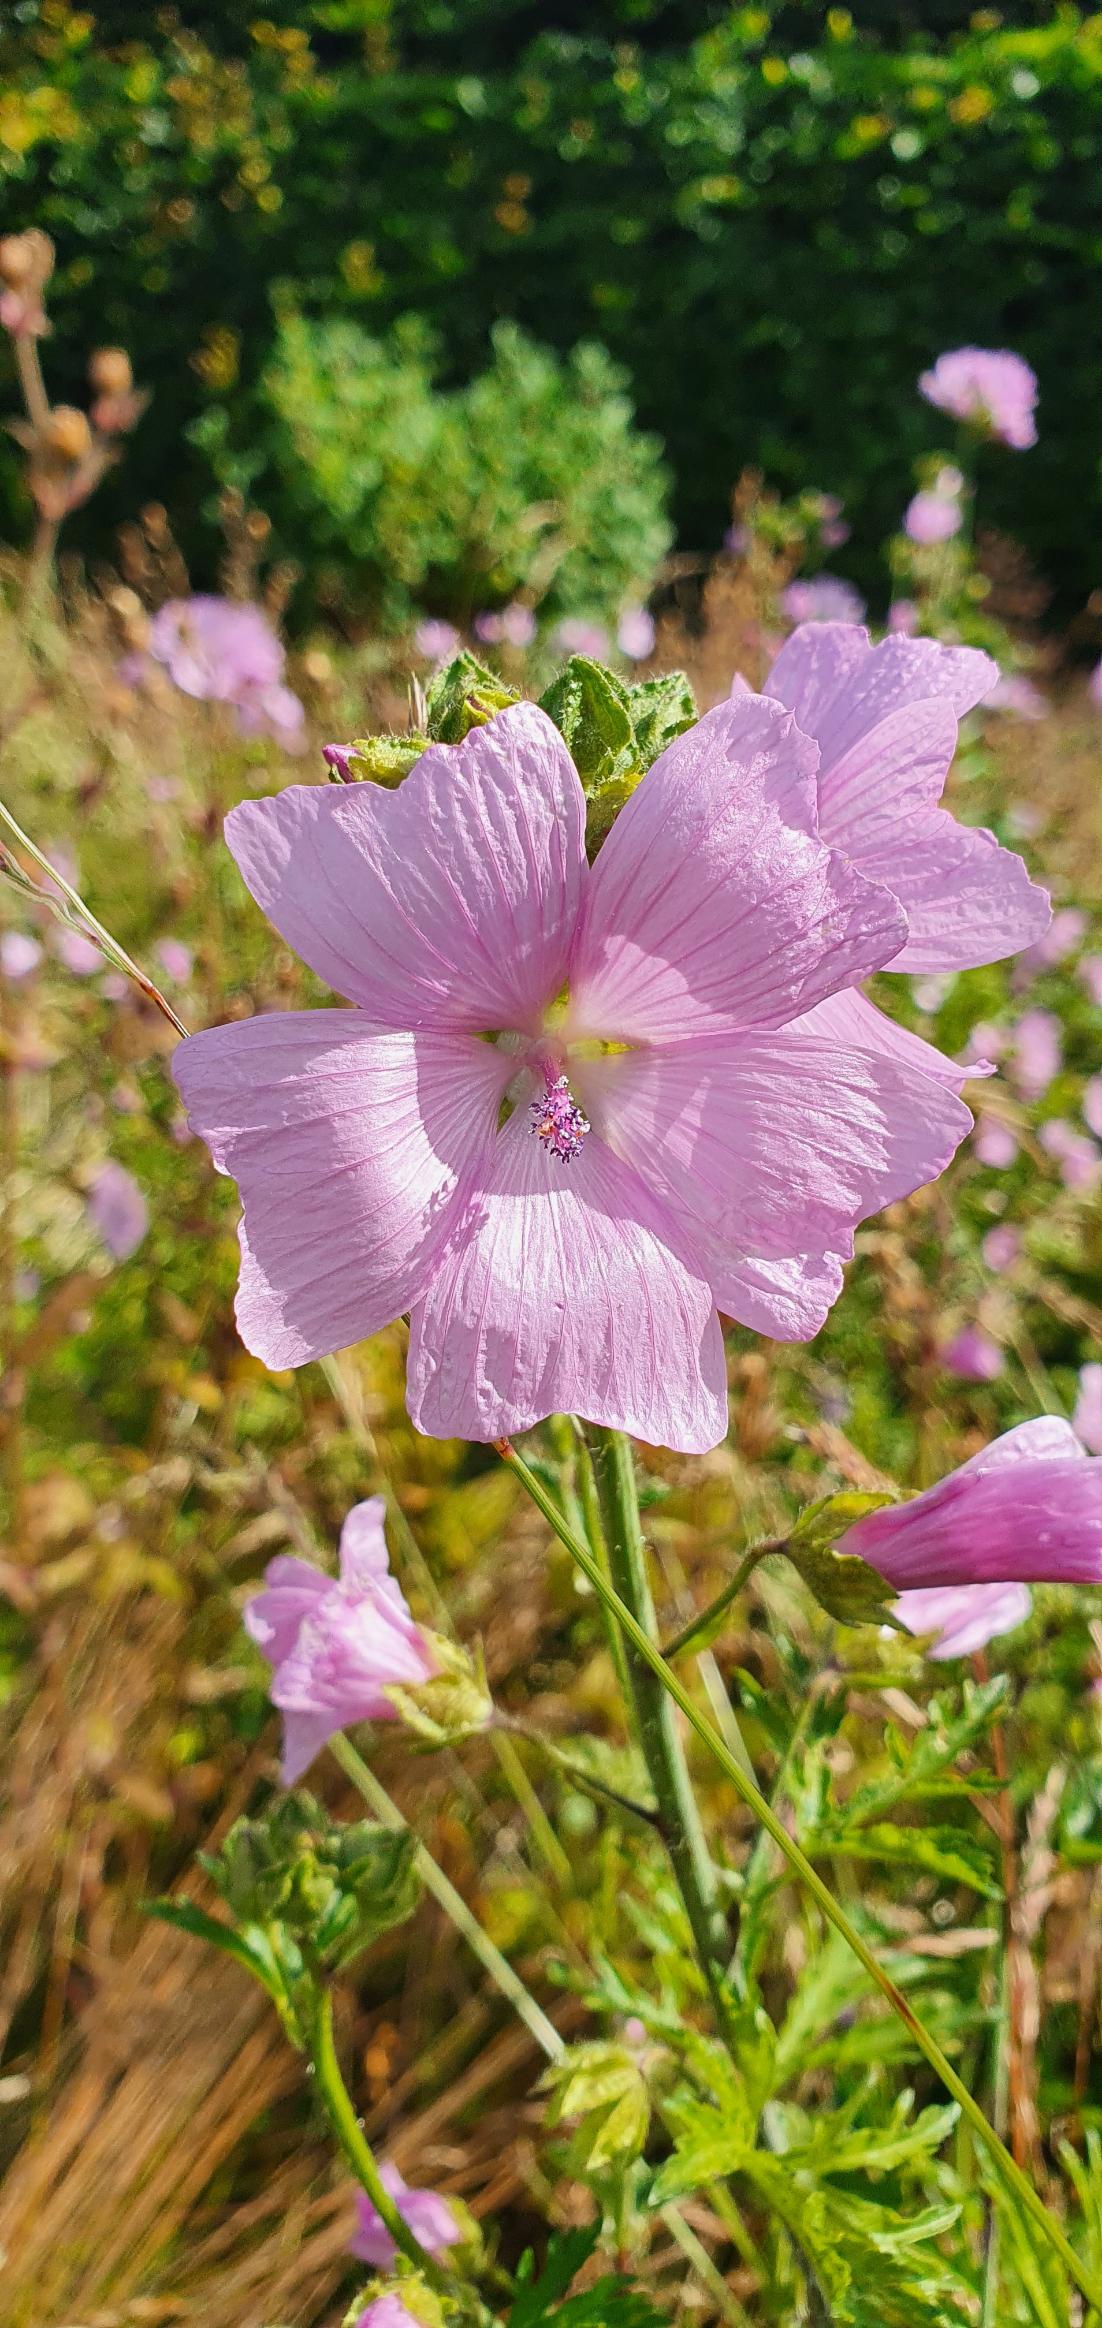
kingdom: Plantae
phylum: Tracheophyta
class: Magnoliopsida
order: Malvales
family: Malvaceae
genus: Malva
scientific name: Malva moschata
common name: Moskus-katost
